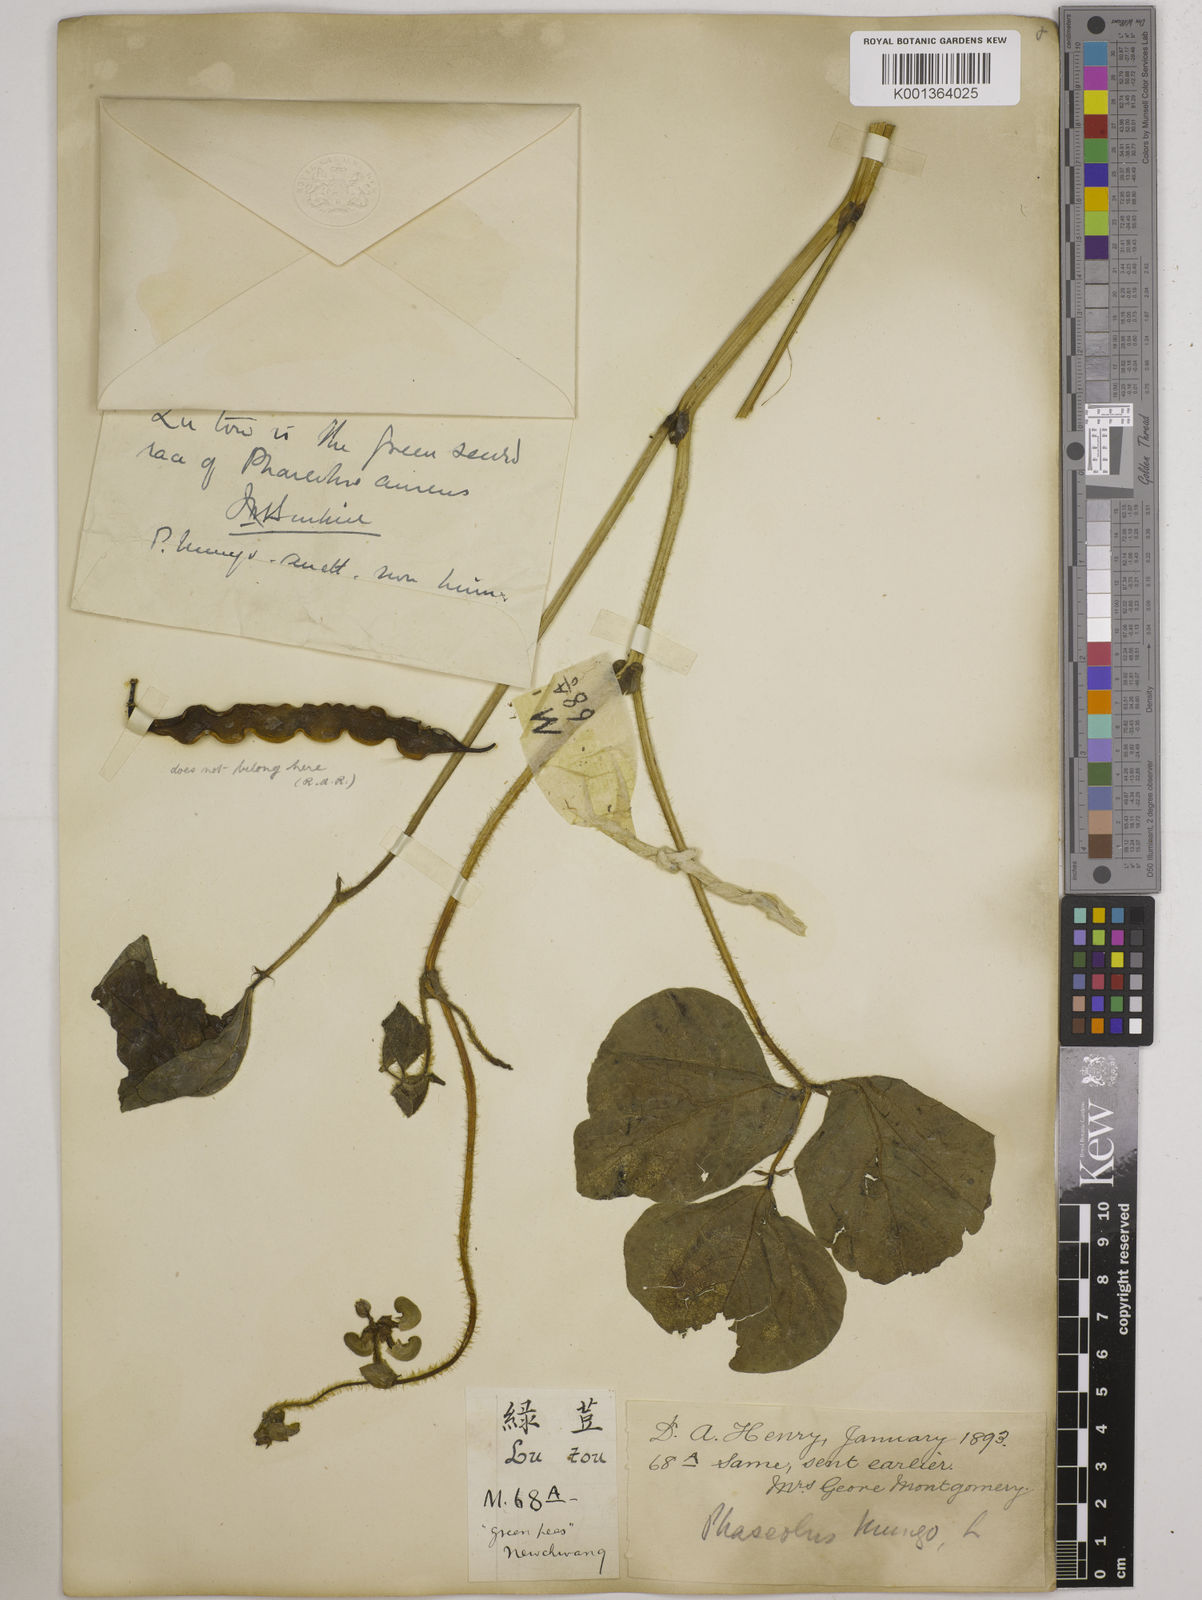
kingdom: Plantae
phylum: Tracheophyta
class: Magnoliopsida
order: Fabales
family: Fabaceae
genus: Vigna
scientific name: Vigna radiata
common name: Mung-bean
